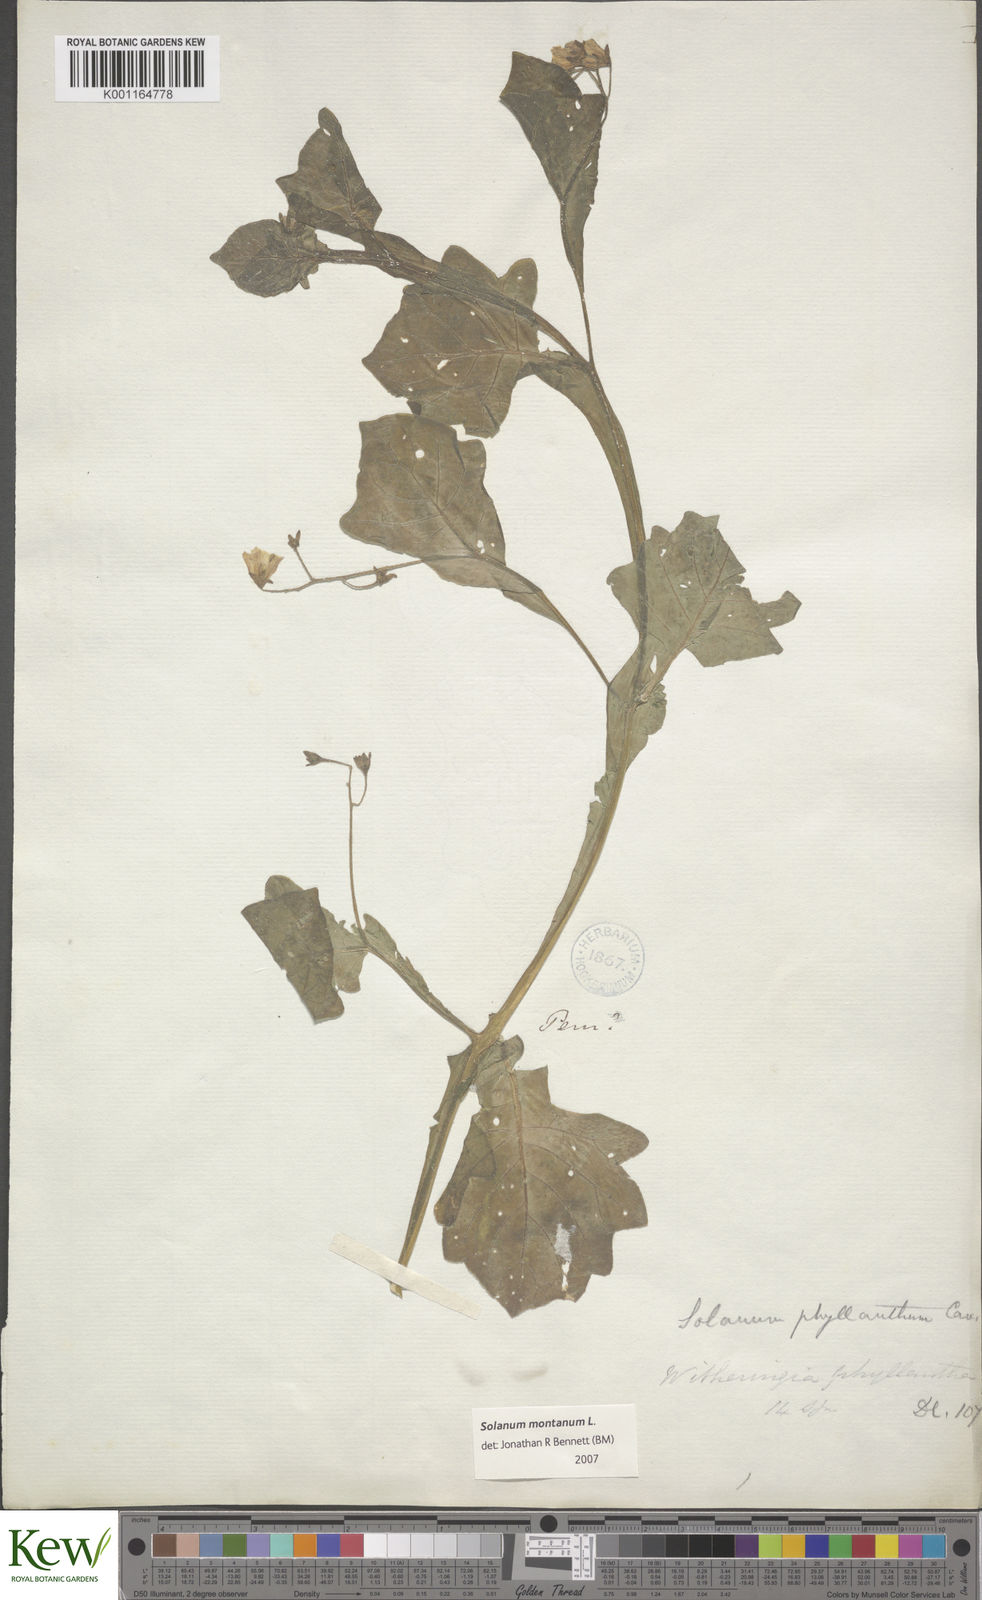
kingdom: Plantae
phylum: Tracheophyta
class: Magnoliopsida
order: Solanales
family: Solanaceae
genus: Solanum
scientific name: Solanum montanum
